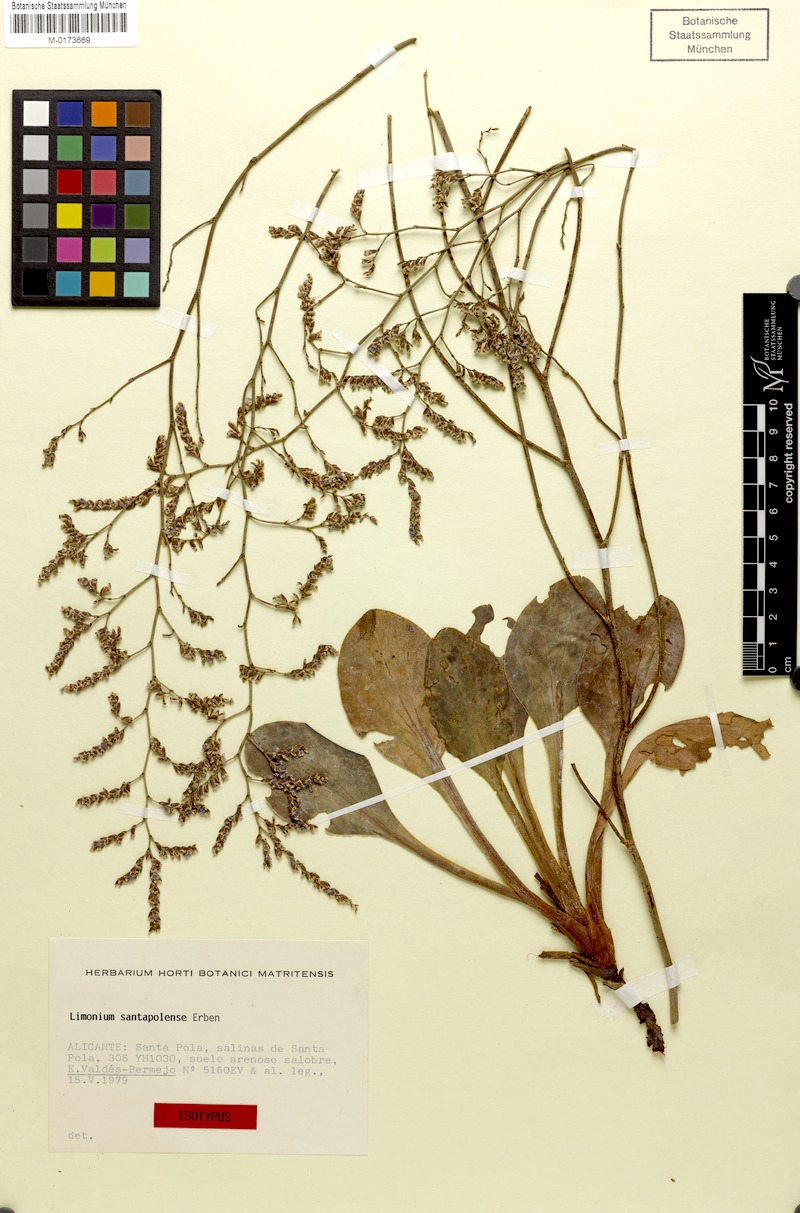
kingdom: Plantae
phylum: Tracheophyta
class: Magnoliopsida
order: Caryophyllales
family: Plumbaginaceae
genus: Limonium
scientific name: Limonium santapolense
